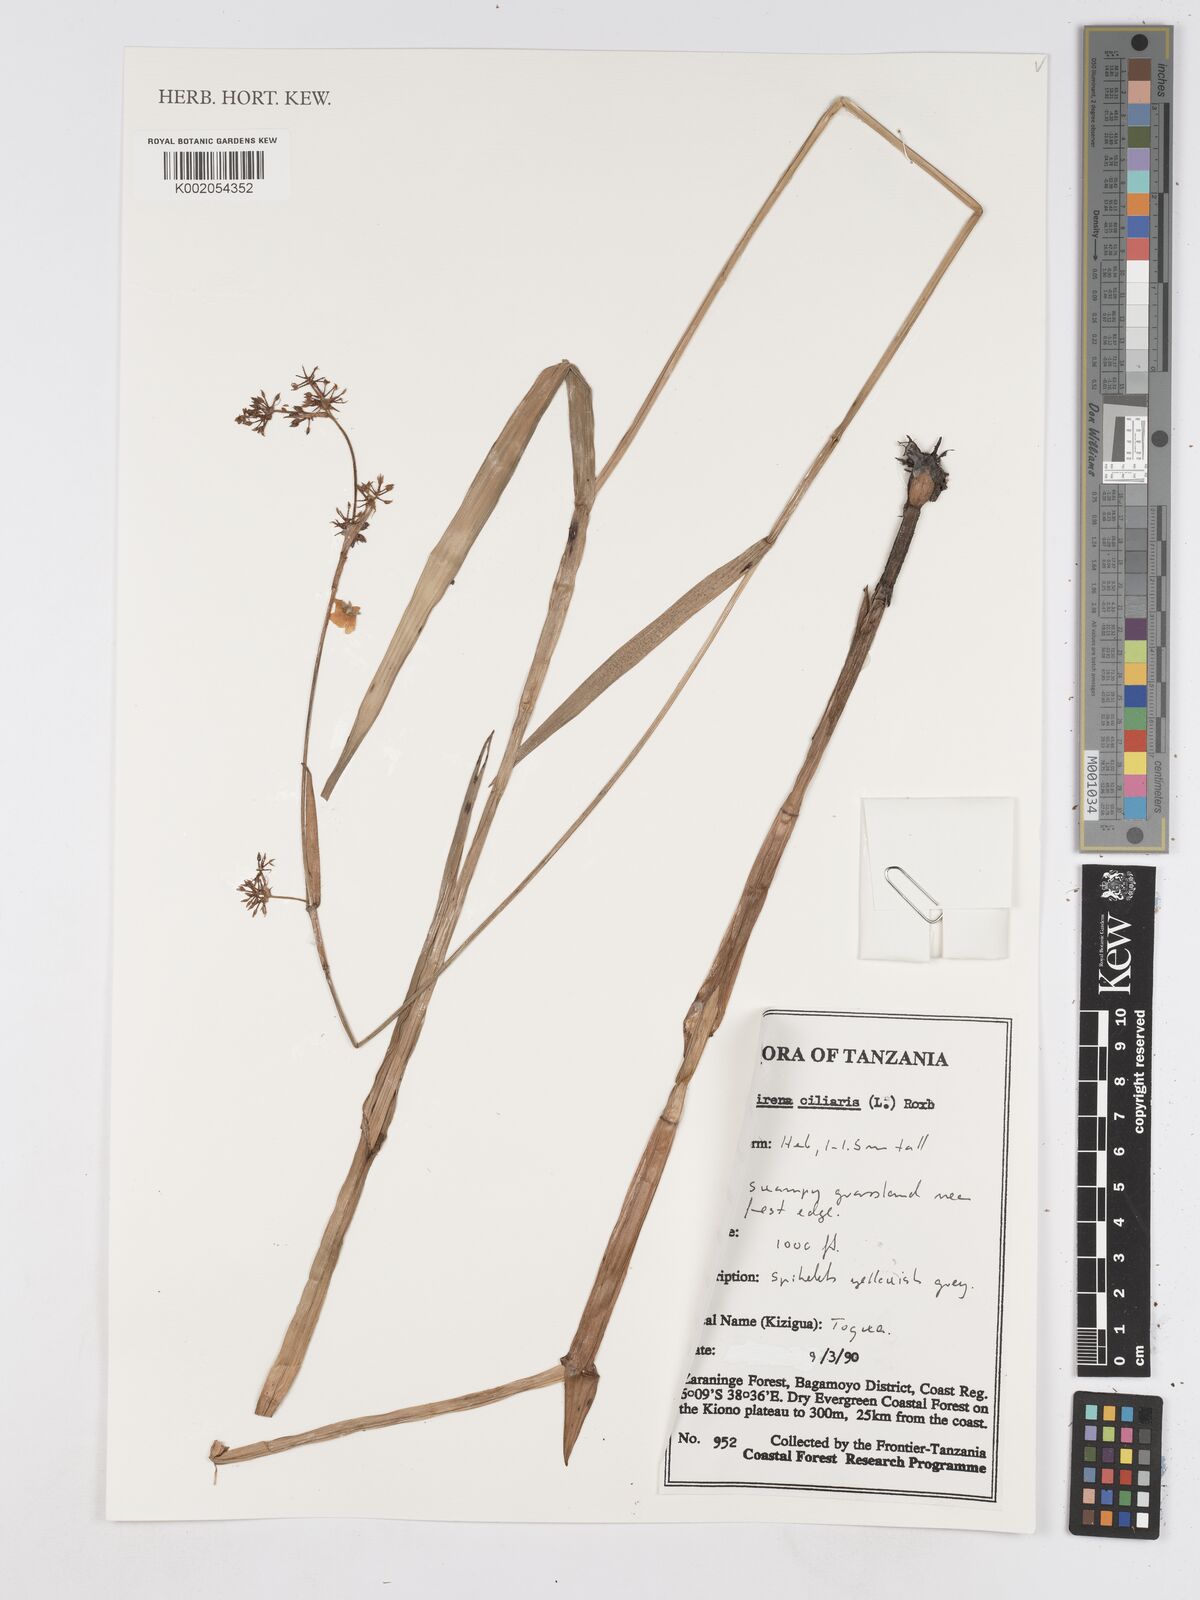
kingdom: Plantae
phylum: Tracheophyta
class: Liliopsida
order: Poales
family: Cyperaceae
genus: Fuirena
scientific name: Fuirena ciliaris
